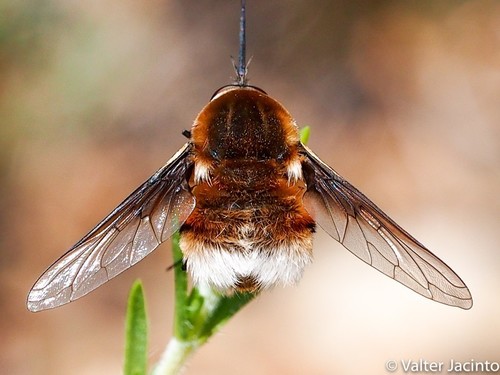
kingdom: Animalia
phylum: Arthropoda
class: Insecta
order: Diptera
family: Bombyliidae
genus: Bombylius
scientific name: Bombylius cruciatus
